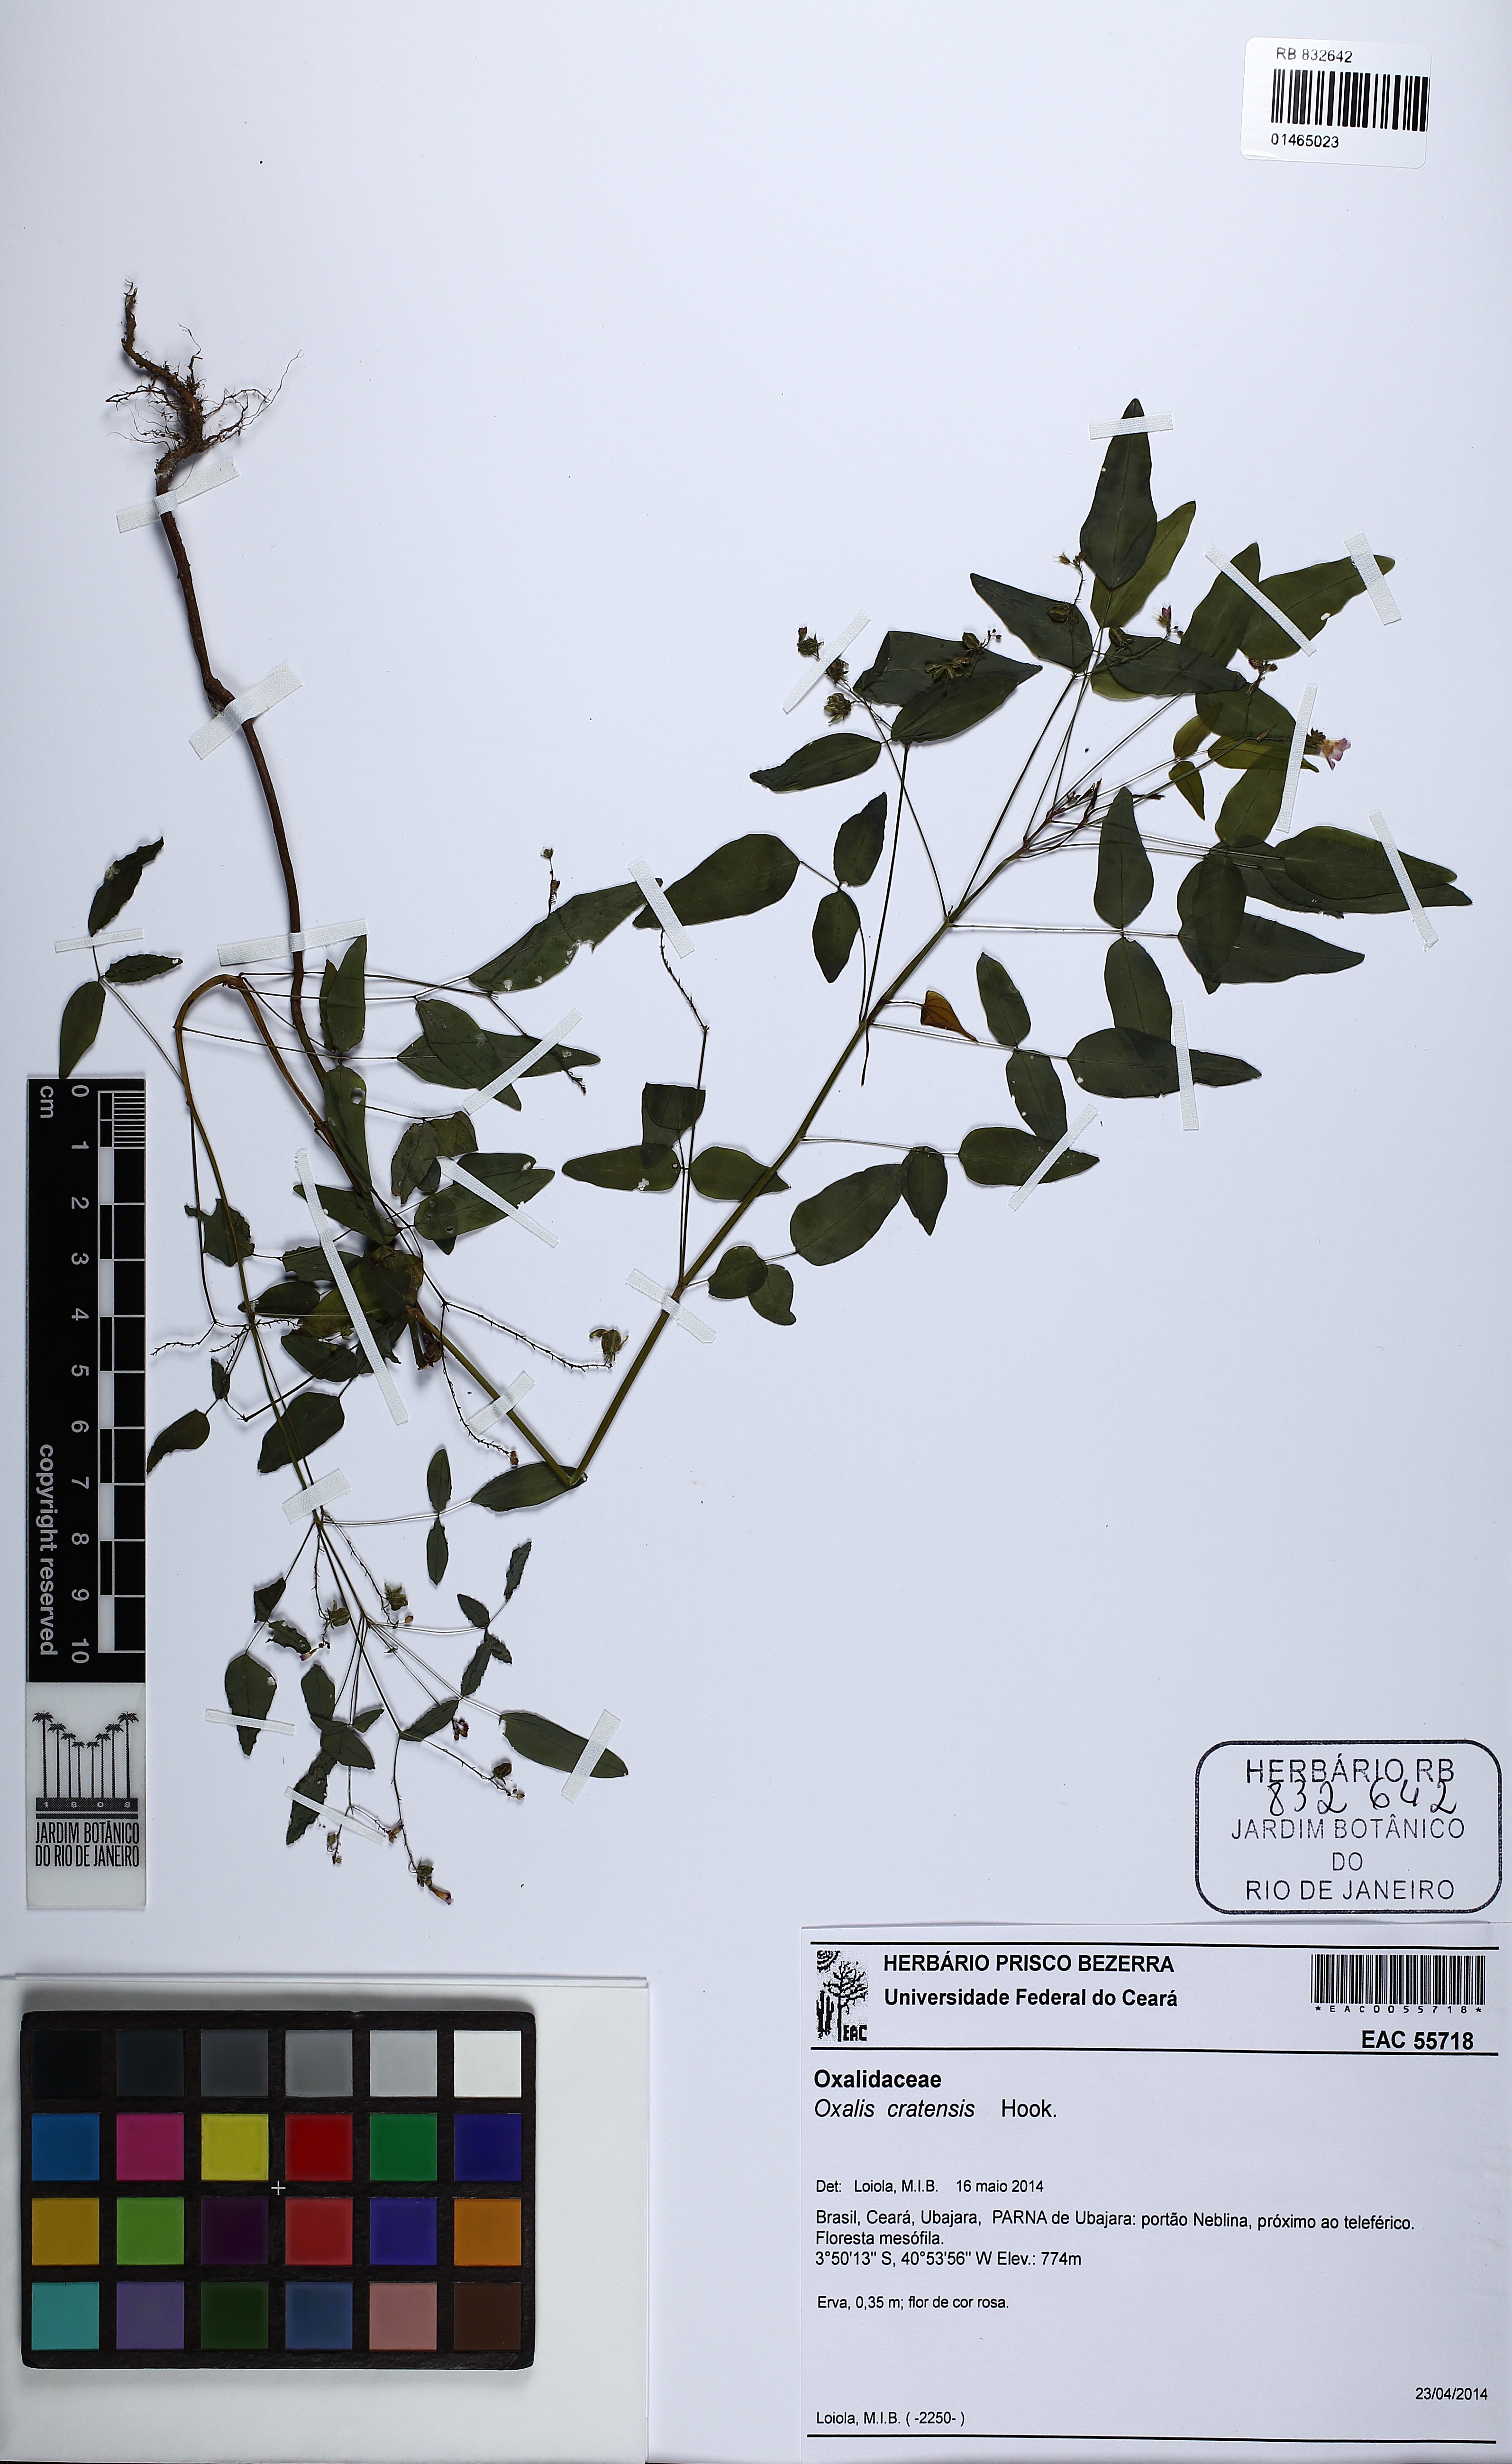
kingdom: Plantae
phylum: Tracheophyta
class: Magnoliopsida
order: Oxalidales
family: Oxalidaceae
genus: Oxalis
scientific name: Oxalis cratensis
